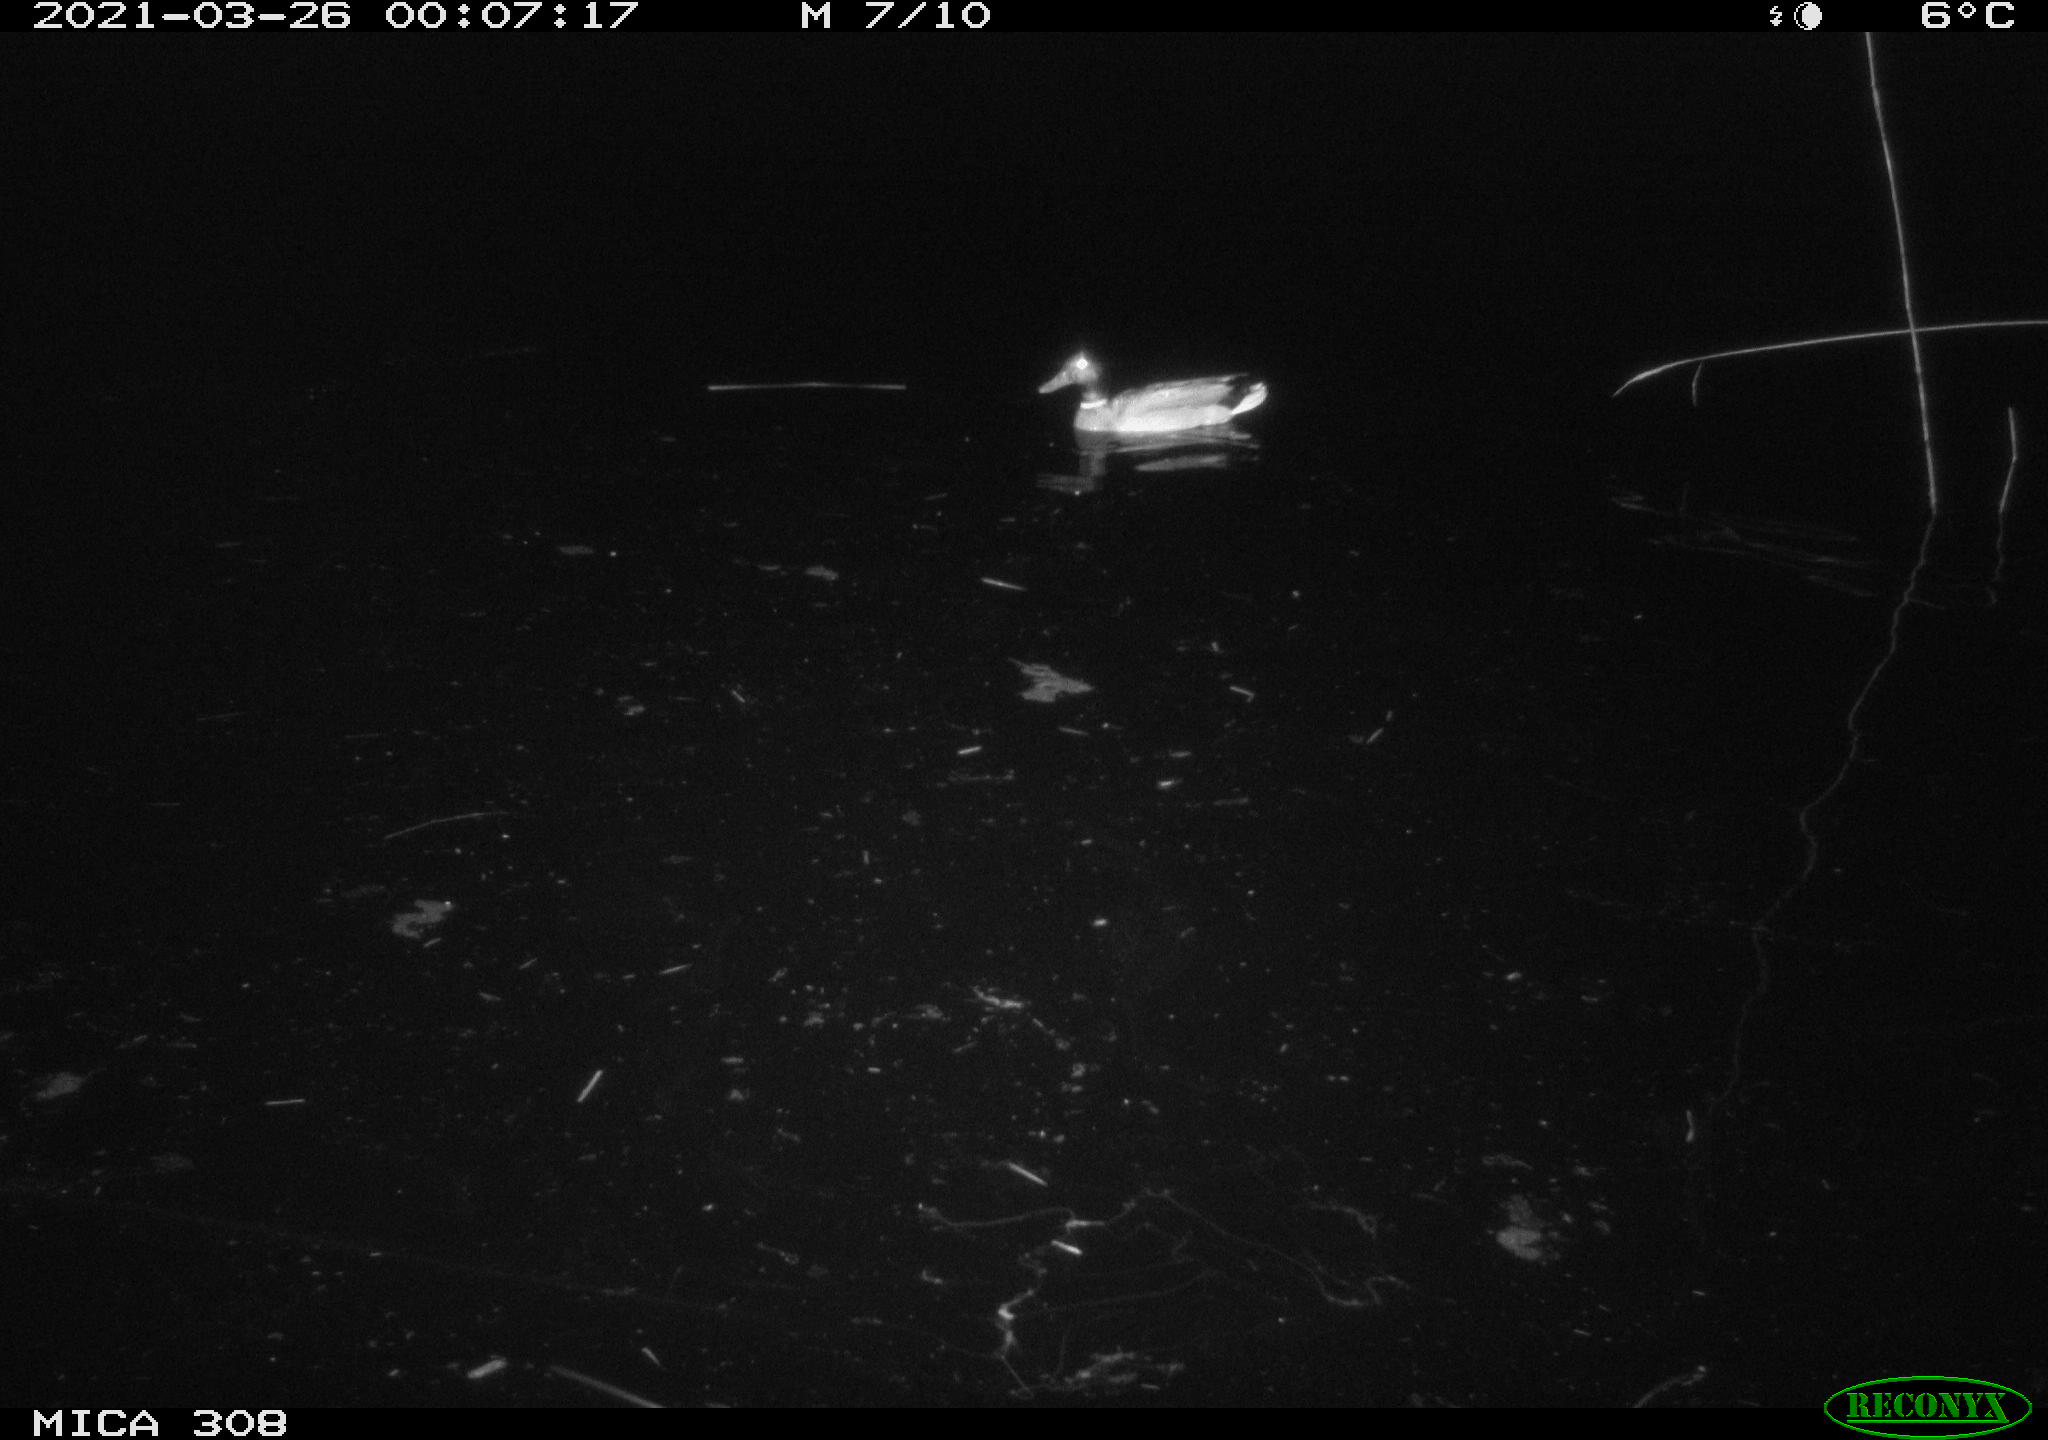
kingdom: Animalia
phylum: Chordata
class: Aves
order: Anseriformes
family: Anatidae
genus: Anas
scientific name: Anas platyrhynchos
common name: Mallard
